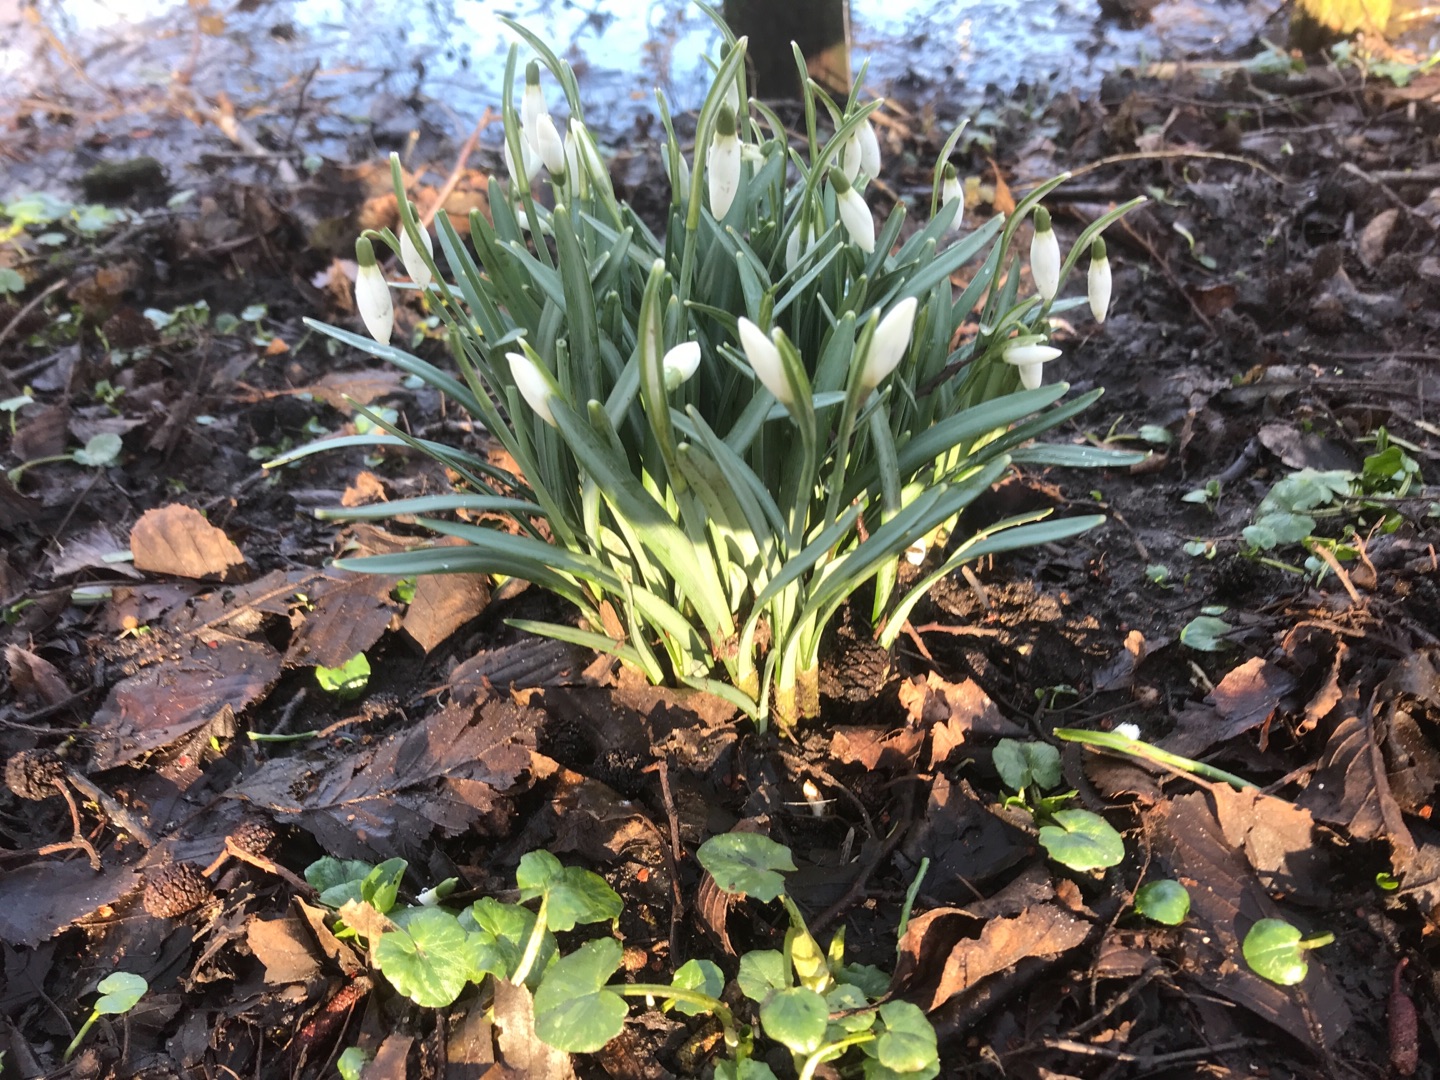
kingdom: Plantae
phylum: Tracheophyta
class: Liliopsida
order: Asparagales
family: Amaryllidaceae
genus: Galanthus
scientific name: Galanthus nivalis
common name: Vintergæk
